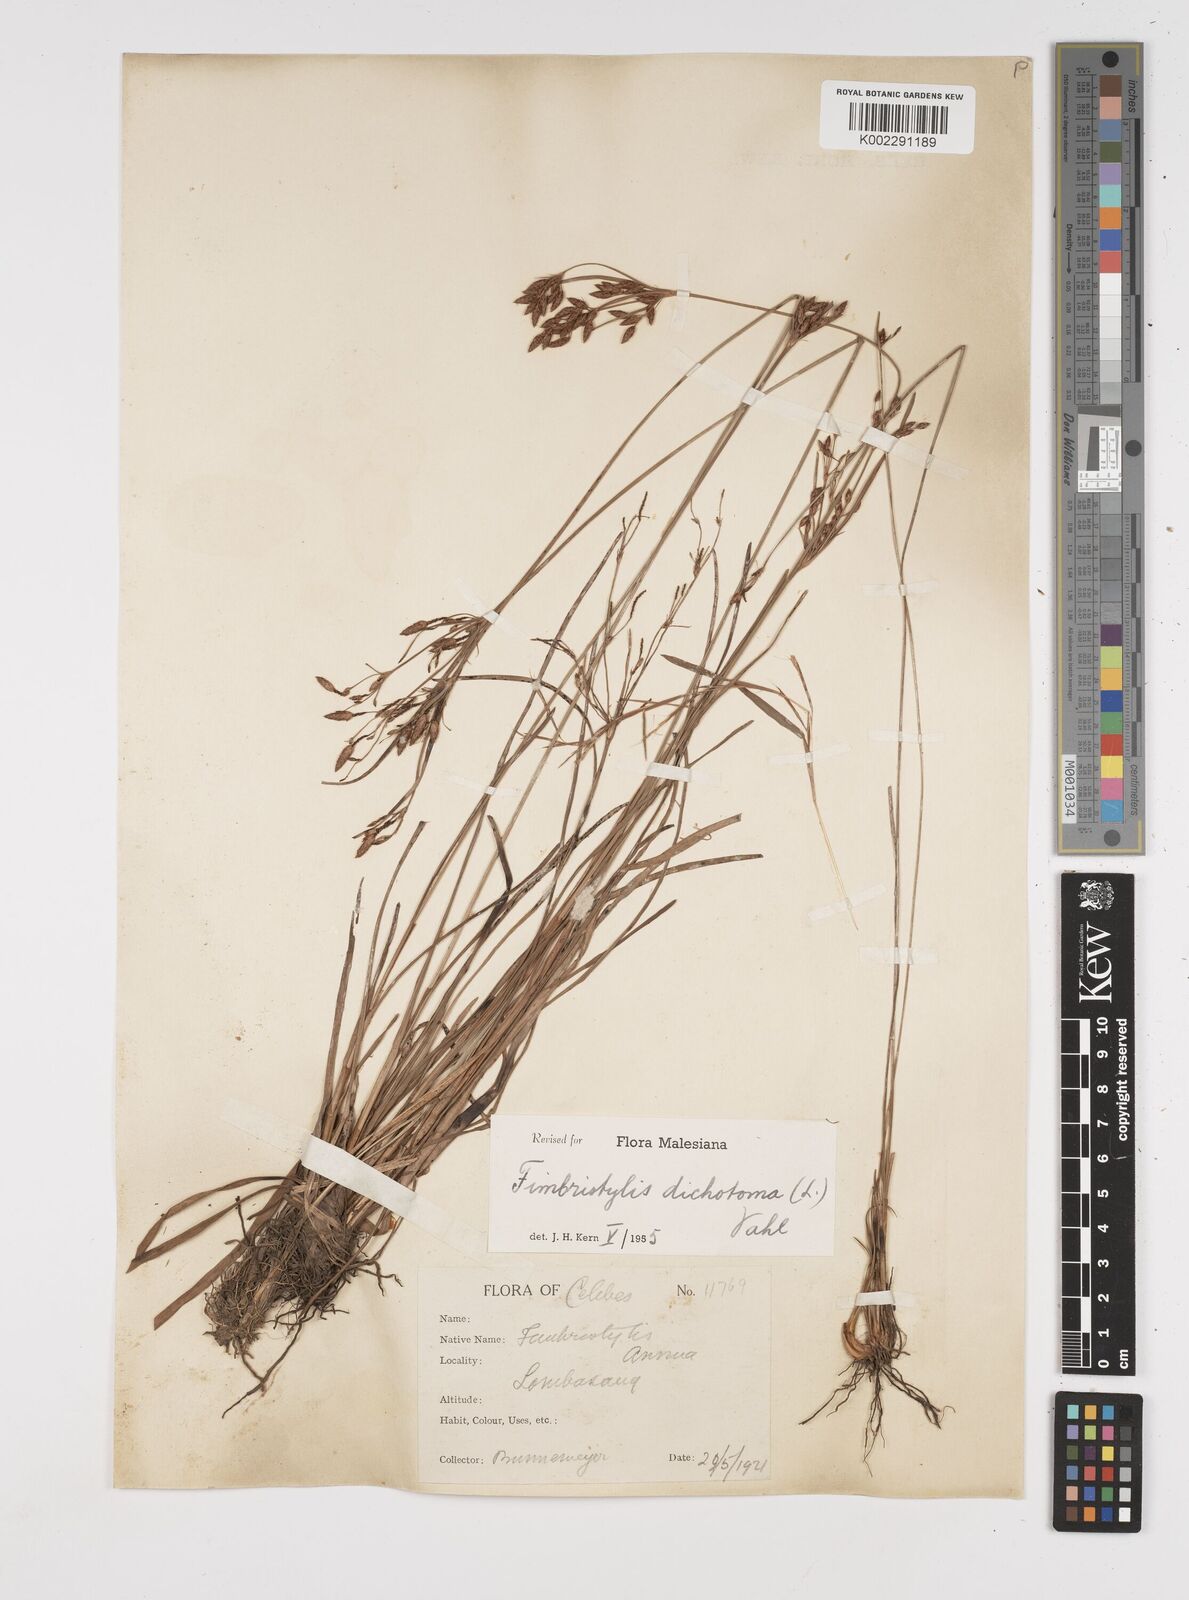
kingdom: Plantae
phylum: Tracheophyta
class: Liliopsida
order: Poales
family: Cyperaceae
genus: Fimbristylis
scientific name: Fimbristylis dichotoma
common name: Forked fimbry
